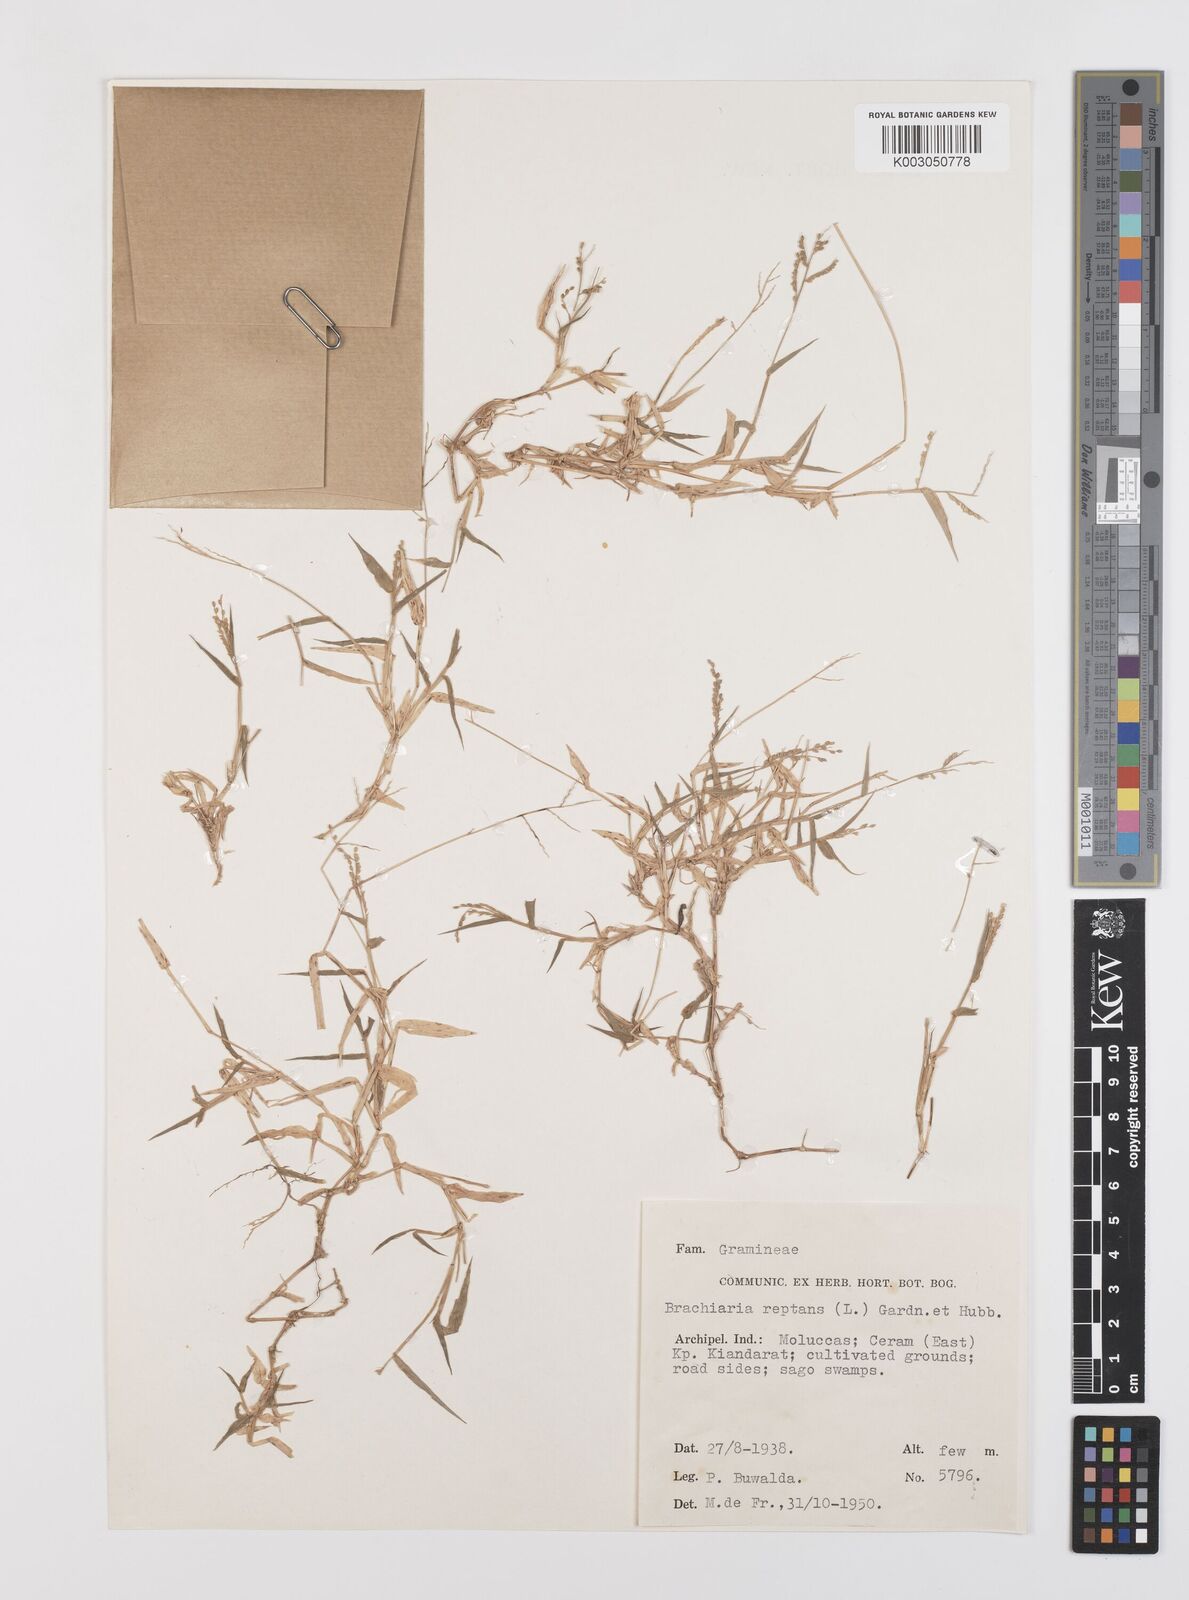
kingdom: Plantae
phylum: Tracheophyta
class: Liliopsida
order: Poales
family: Poaceae
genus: Urochloa
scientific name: Urochloa reptans
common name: Sprawling signalgrass
